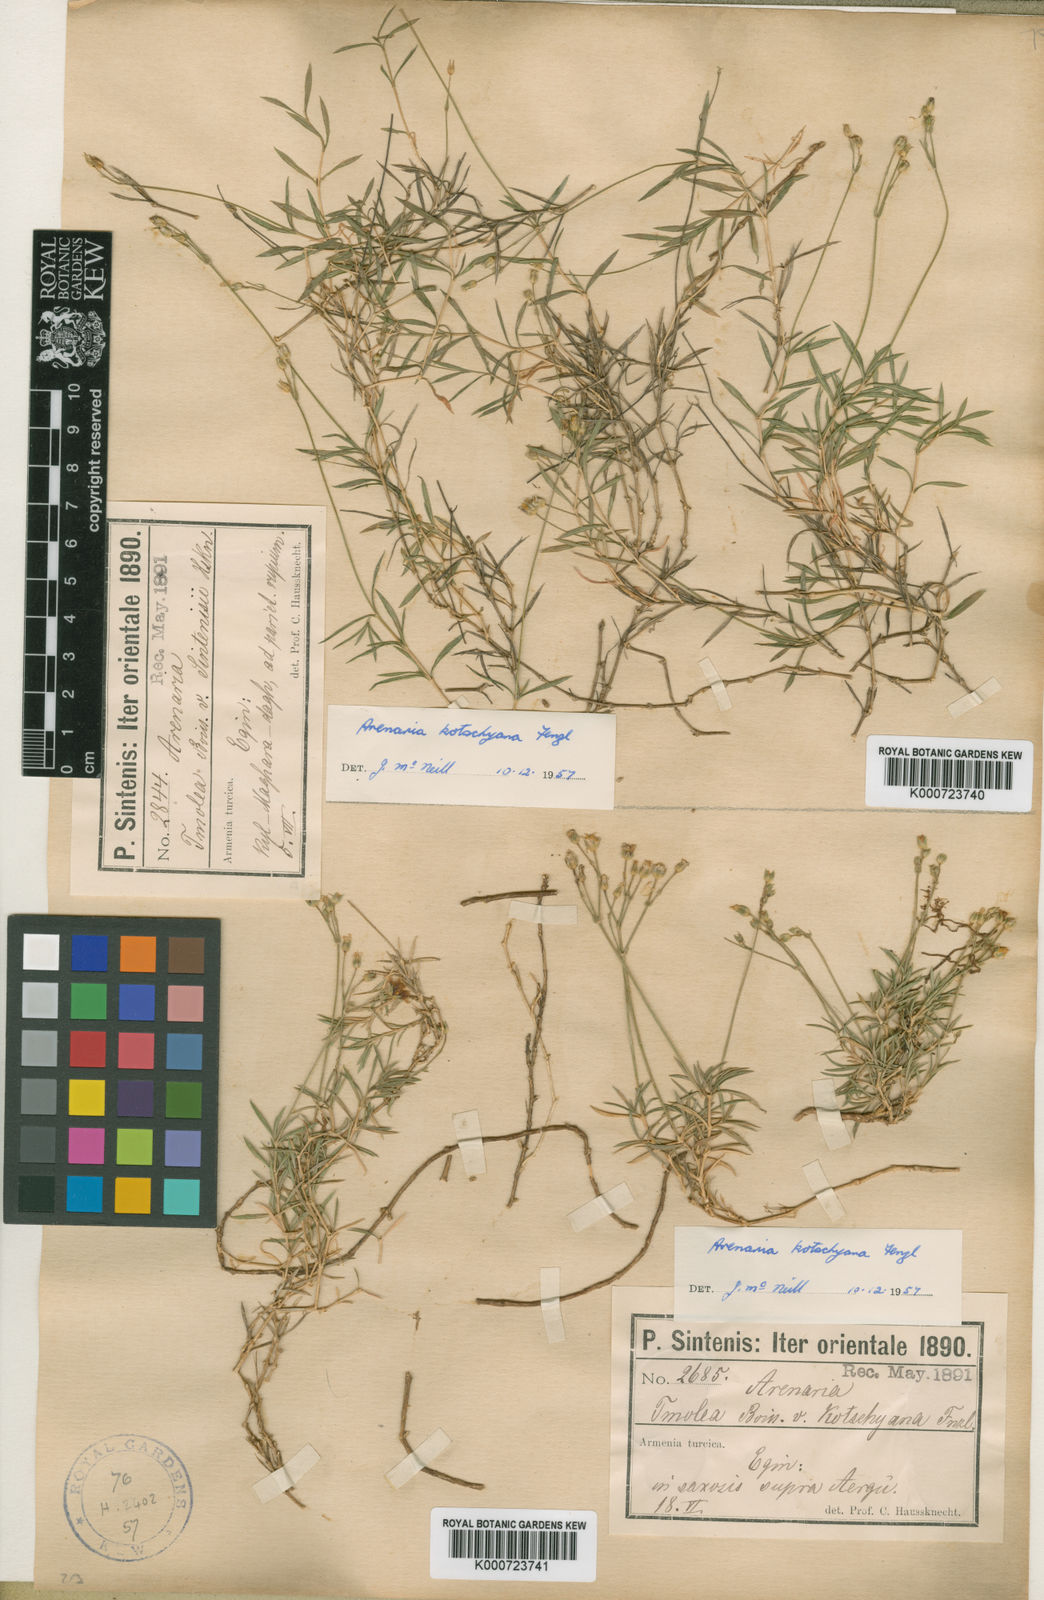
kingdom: Plantae
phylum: Tracheophyta
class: Magnoliopsida
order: Caryophyllales
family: Caryophyllaceae
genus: Arenaria
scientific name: Arenaria tmolea
